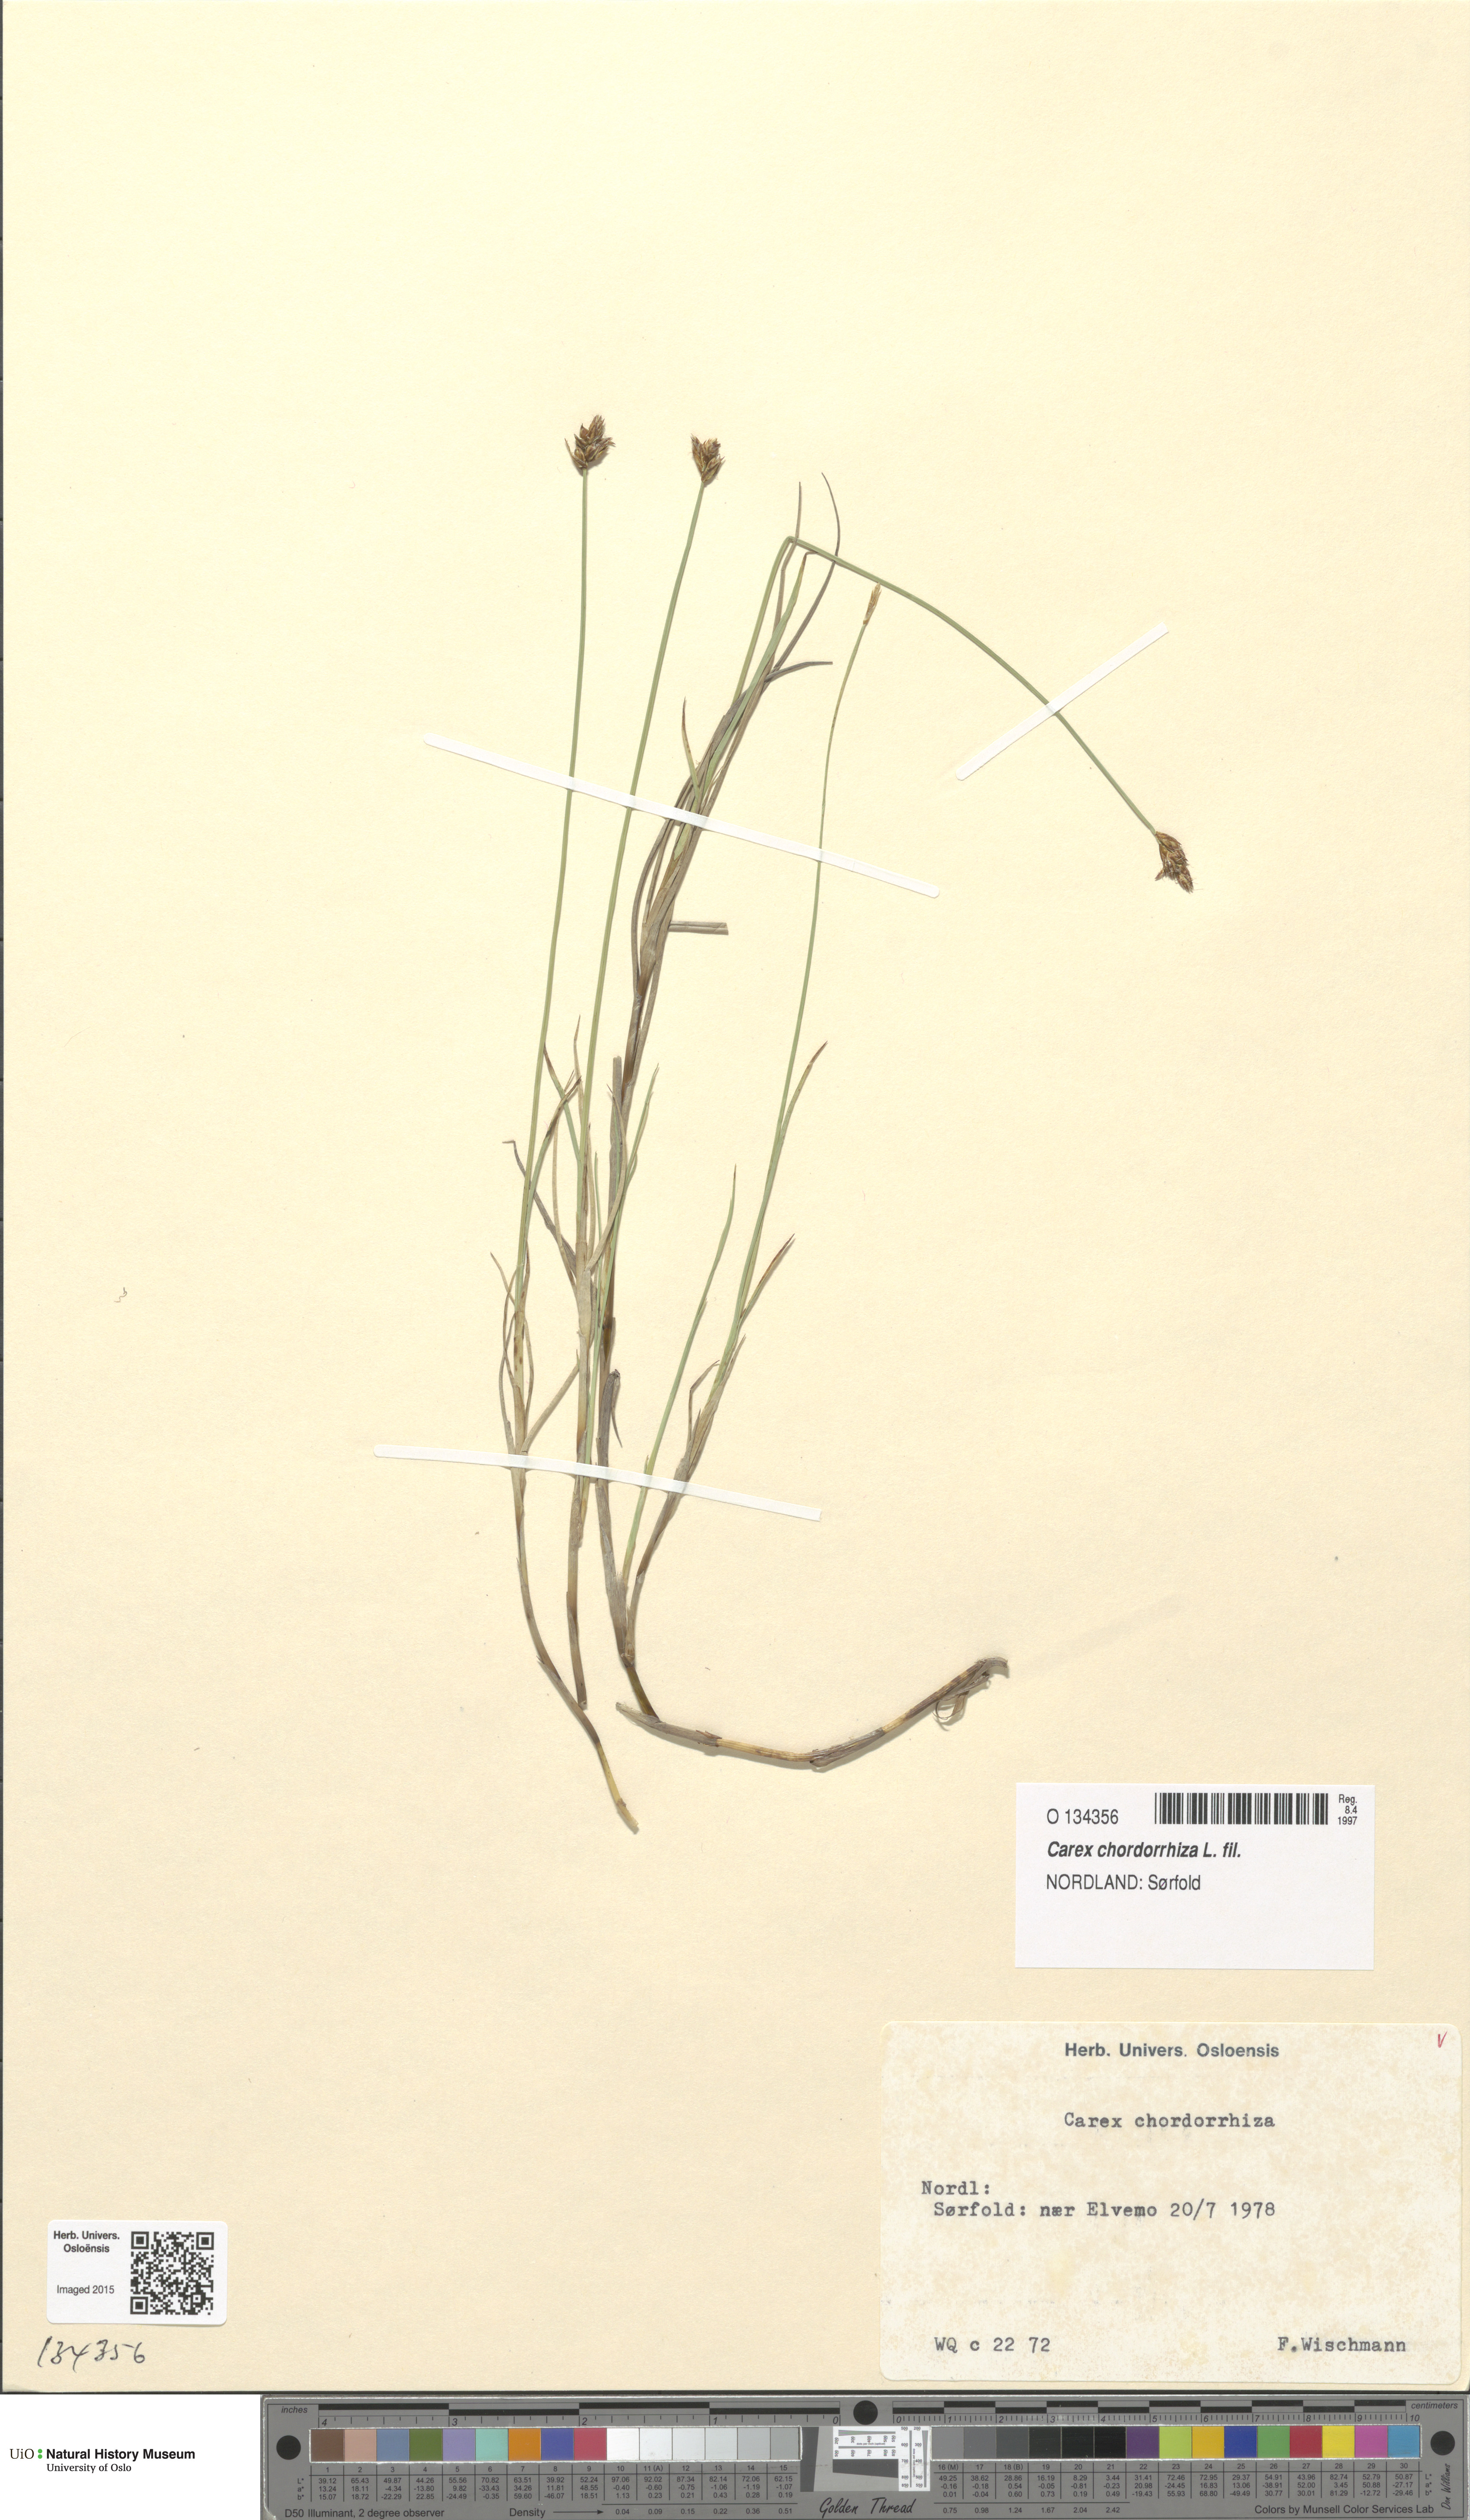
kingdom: Plantae
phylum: Tracheophyta
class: Liliopsida
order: Poales
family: Cyperaceae
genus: Carex
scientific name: Carex chordorrhiza
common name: String sedge
